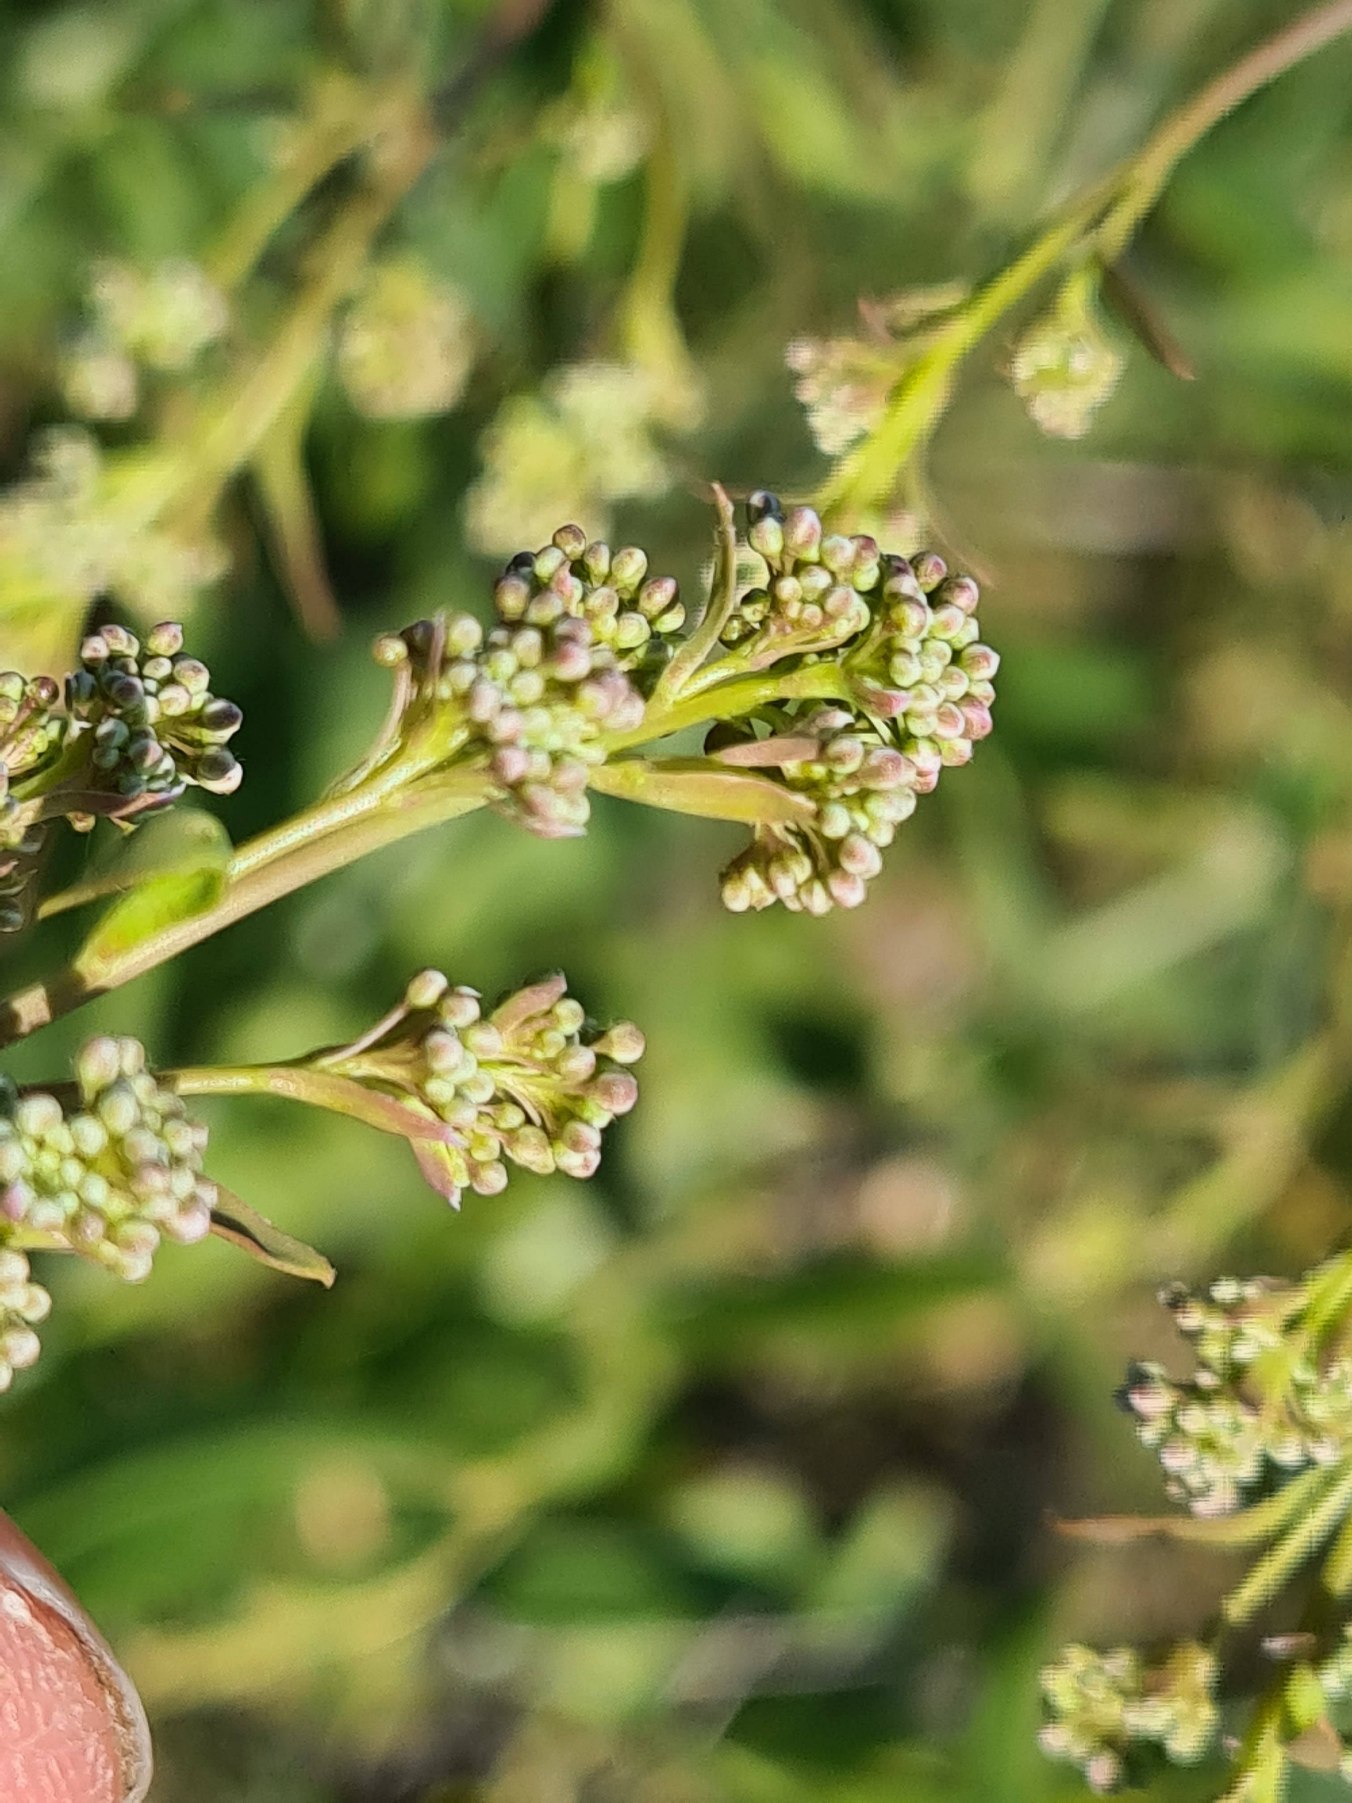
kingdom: Plantae
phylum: Tracheophyta
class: Magnoliopsida
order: Brassicales
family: Brassicaceae
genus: Lepidium
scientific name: Lepidium latifolium
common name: Strand-karse
